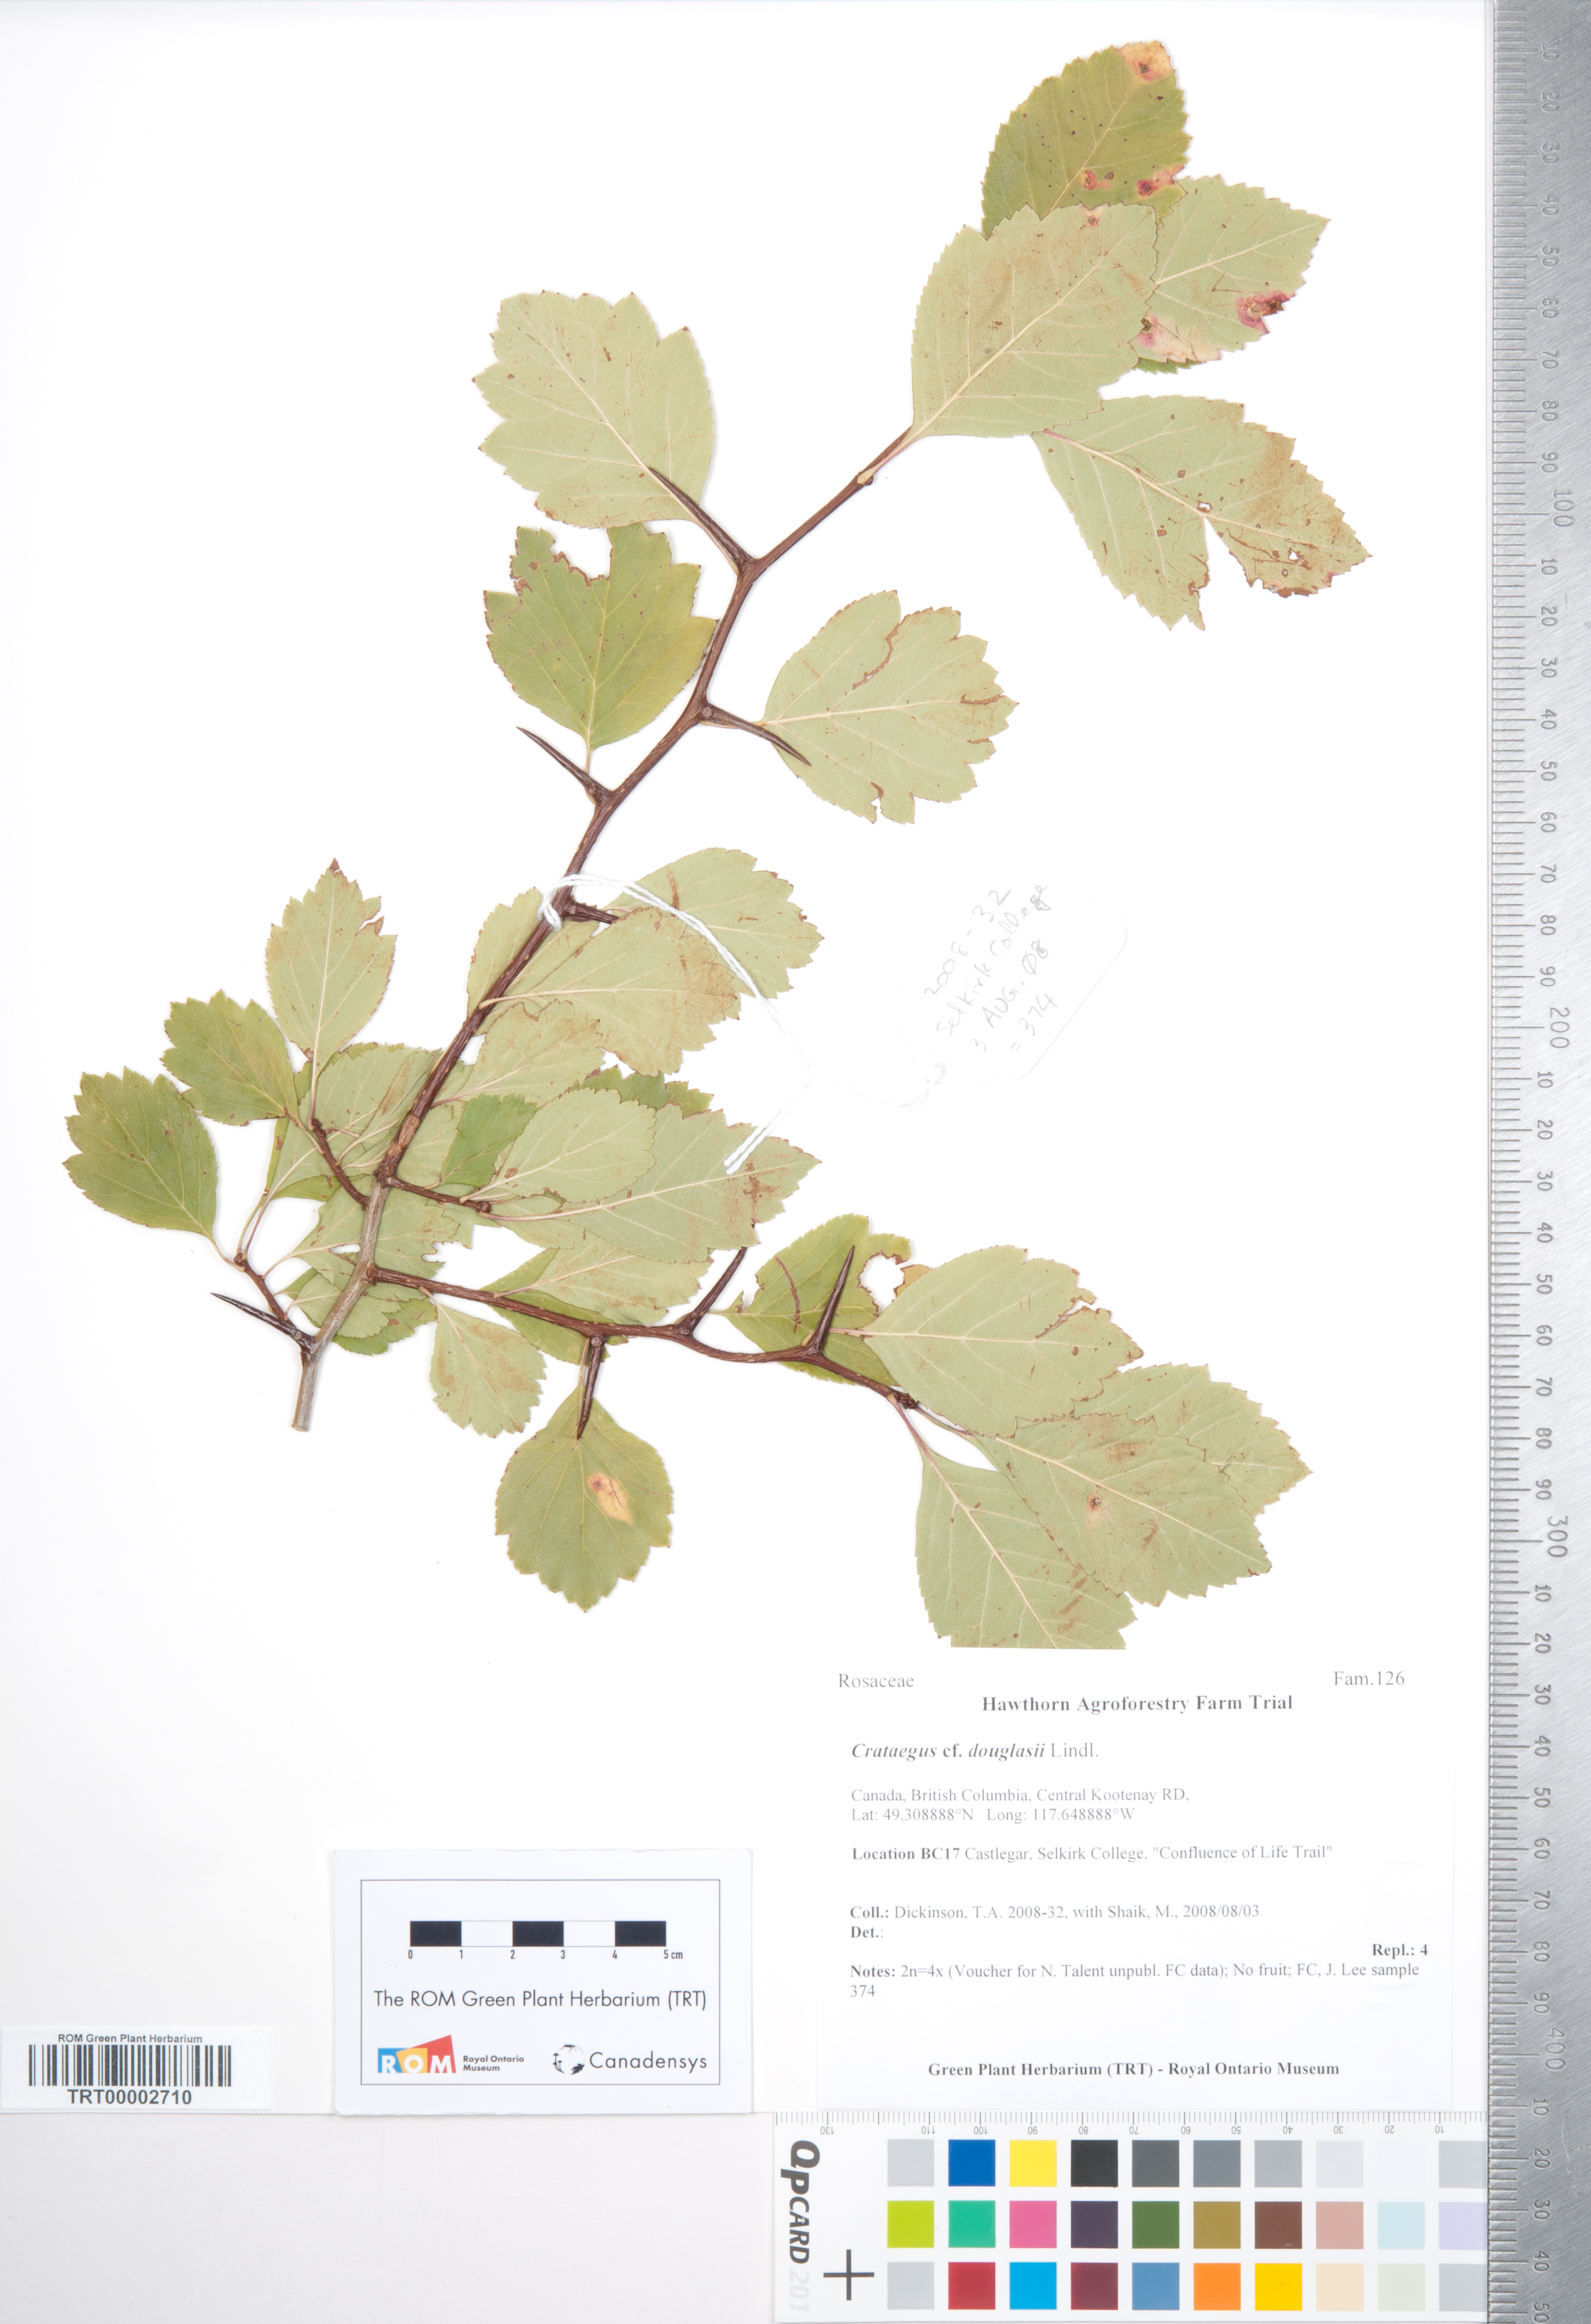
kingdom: Plantae
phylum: Tracheophyta
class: Magnoliopsida
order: Rosales
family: Rosaceae
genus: Crataegus
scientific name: Crataegus douglasii
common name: Black hawthorn
